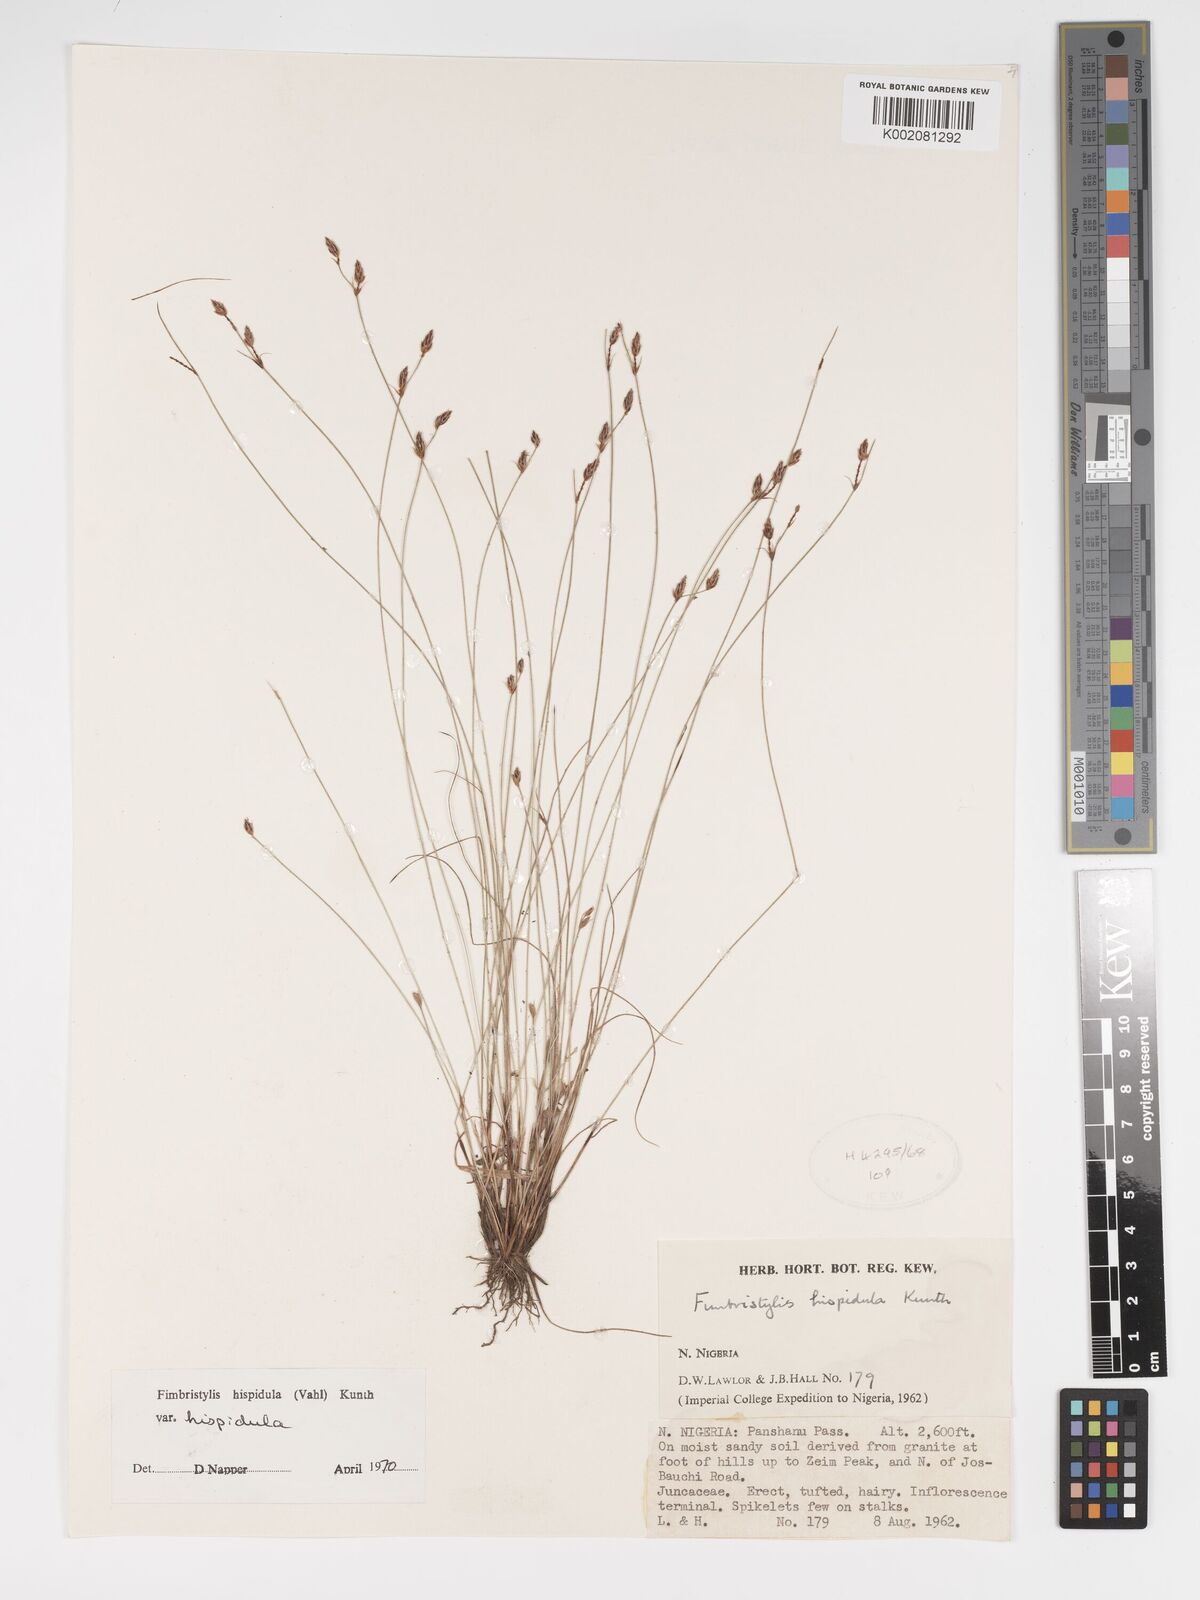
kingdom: Plantae
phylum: Tracheophyta
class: Liliopsida
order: Poales
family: Cyperaceae
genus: Bulbostylis
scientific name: Bulbostylis hispidula
